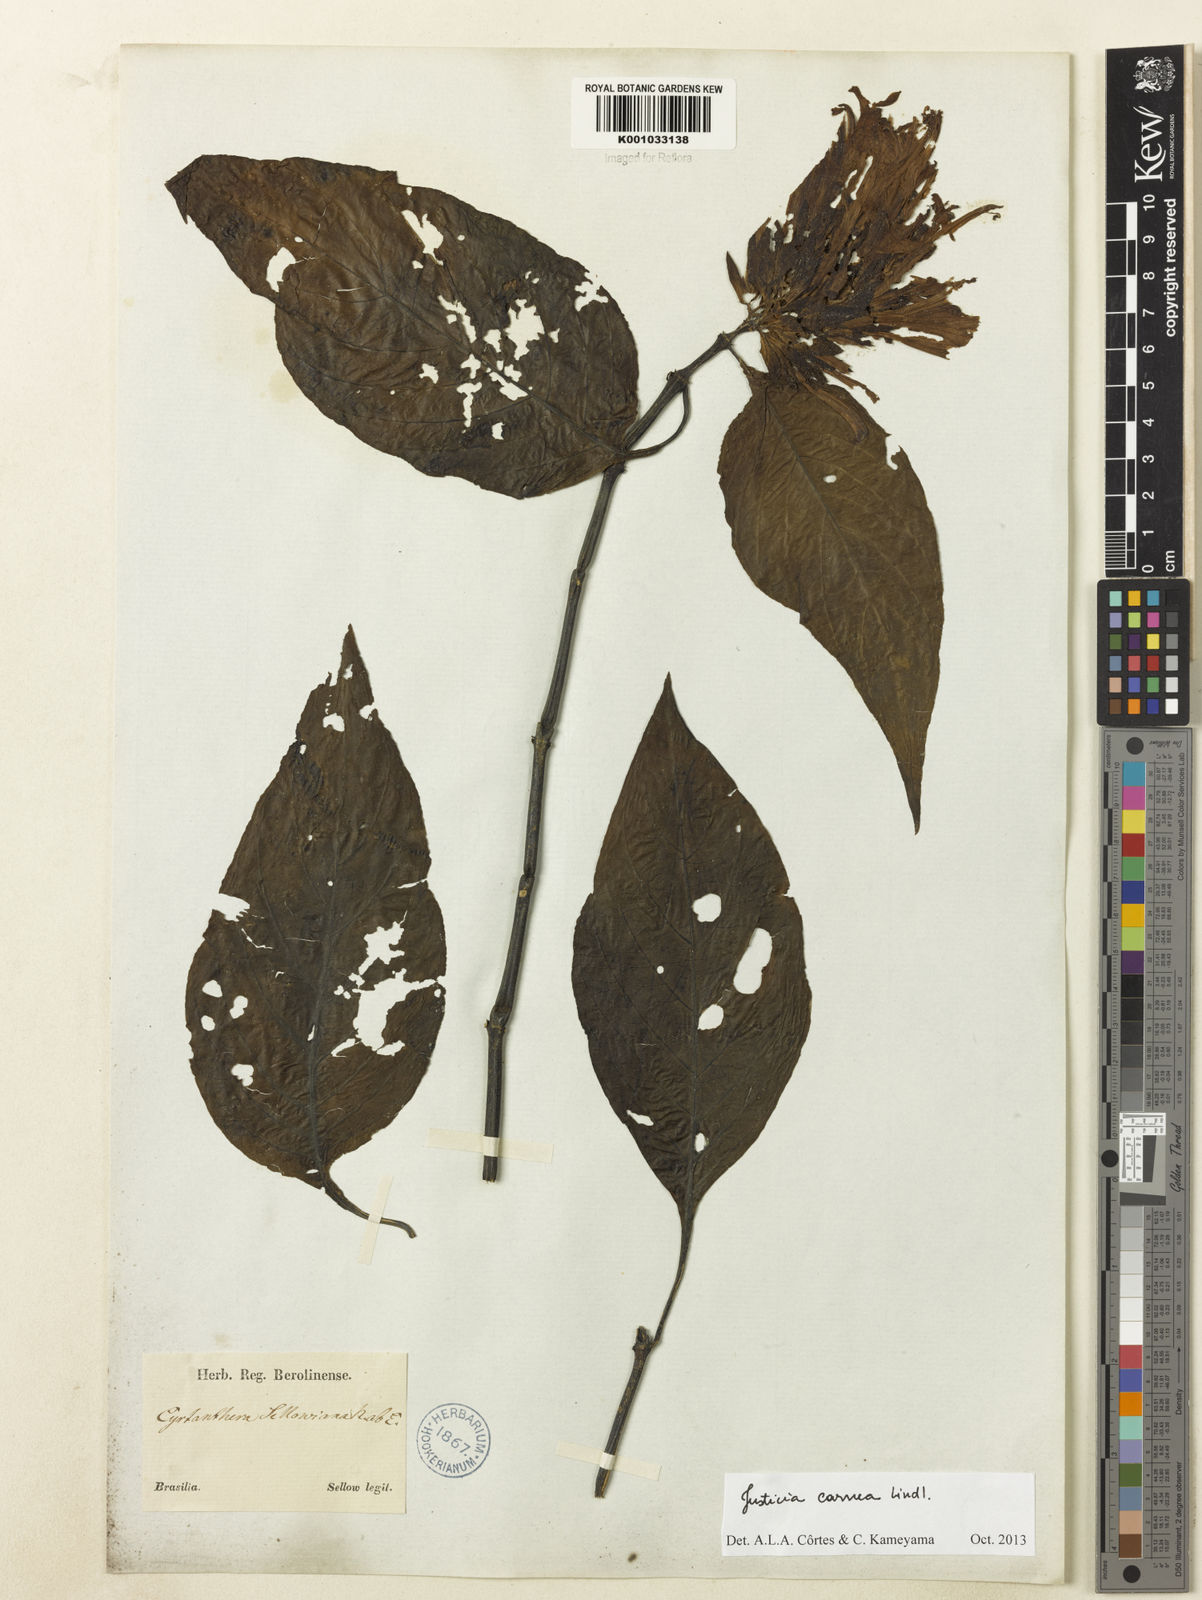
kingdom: Plantae
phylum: Tracheophyta
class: Magnoliopsida
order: Lamiales
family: Acanthaceae
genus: Justicia
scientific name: Justicia carnea
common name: Brazilian-plume
